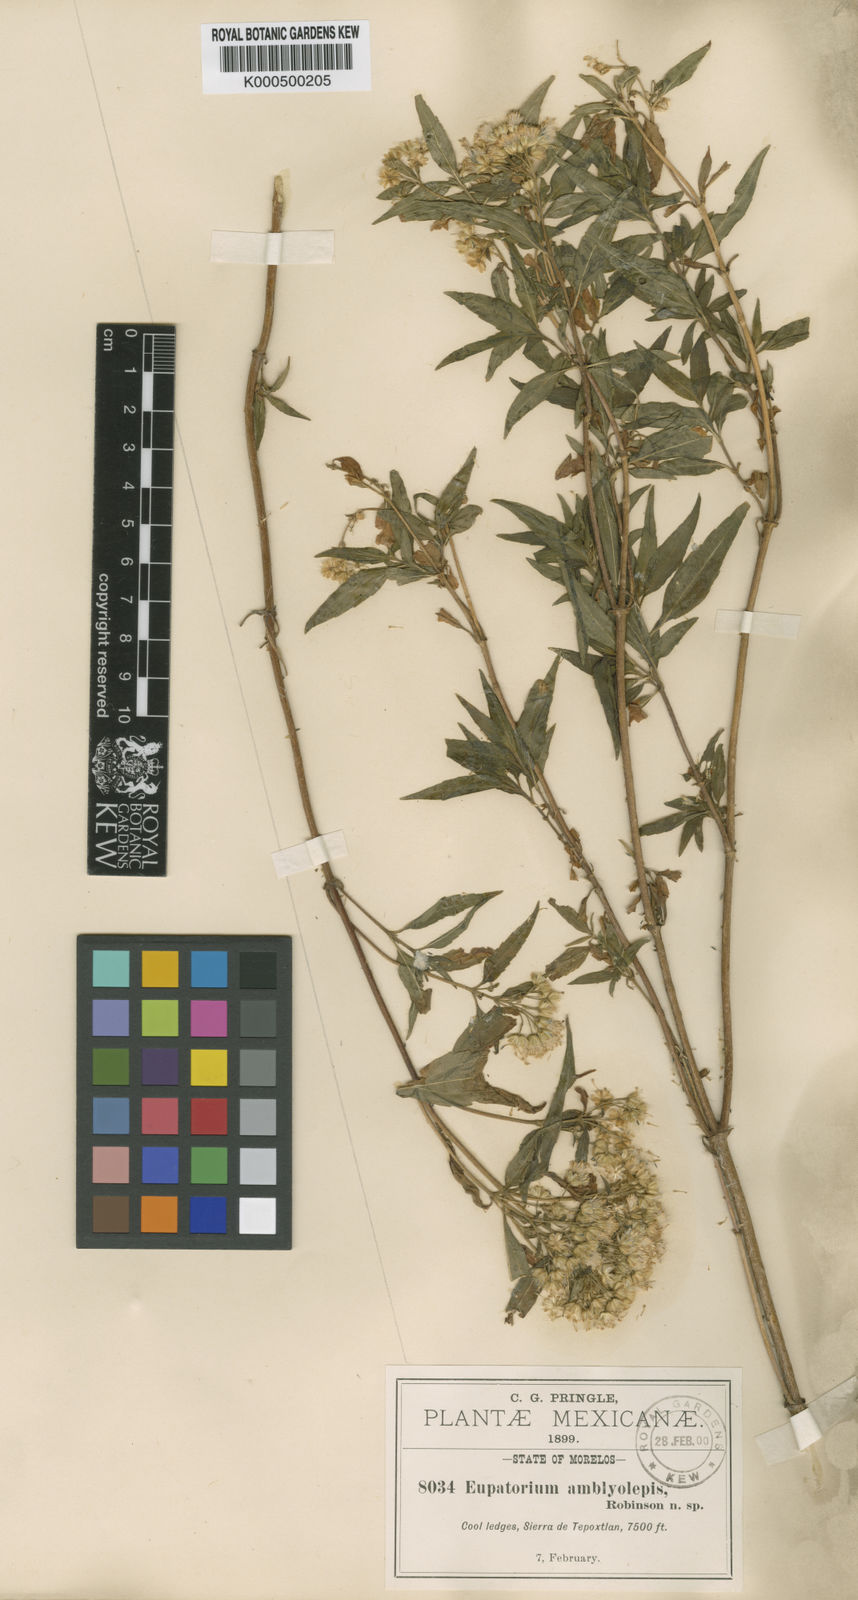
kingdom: Plantae
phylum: Tracheophyta
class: Magnoliopsida
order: Asterales
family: Asteraceae
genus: Ageratina
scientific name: Ageratina amblyolepis
